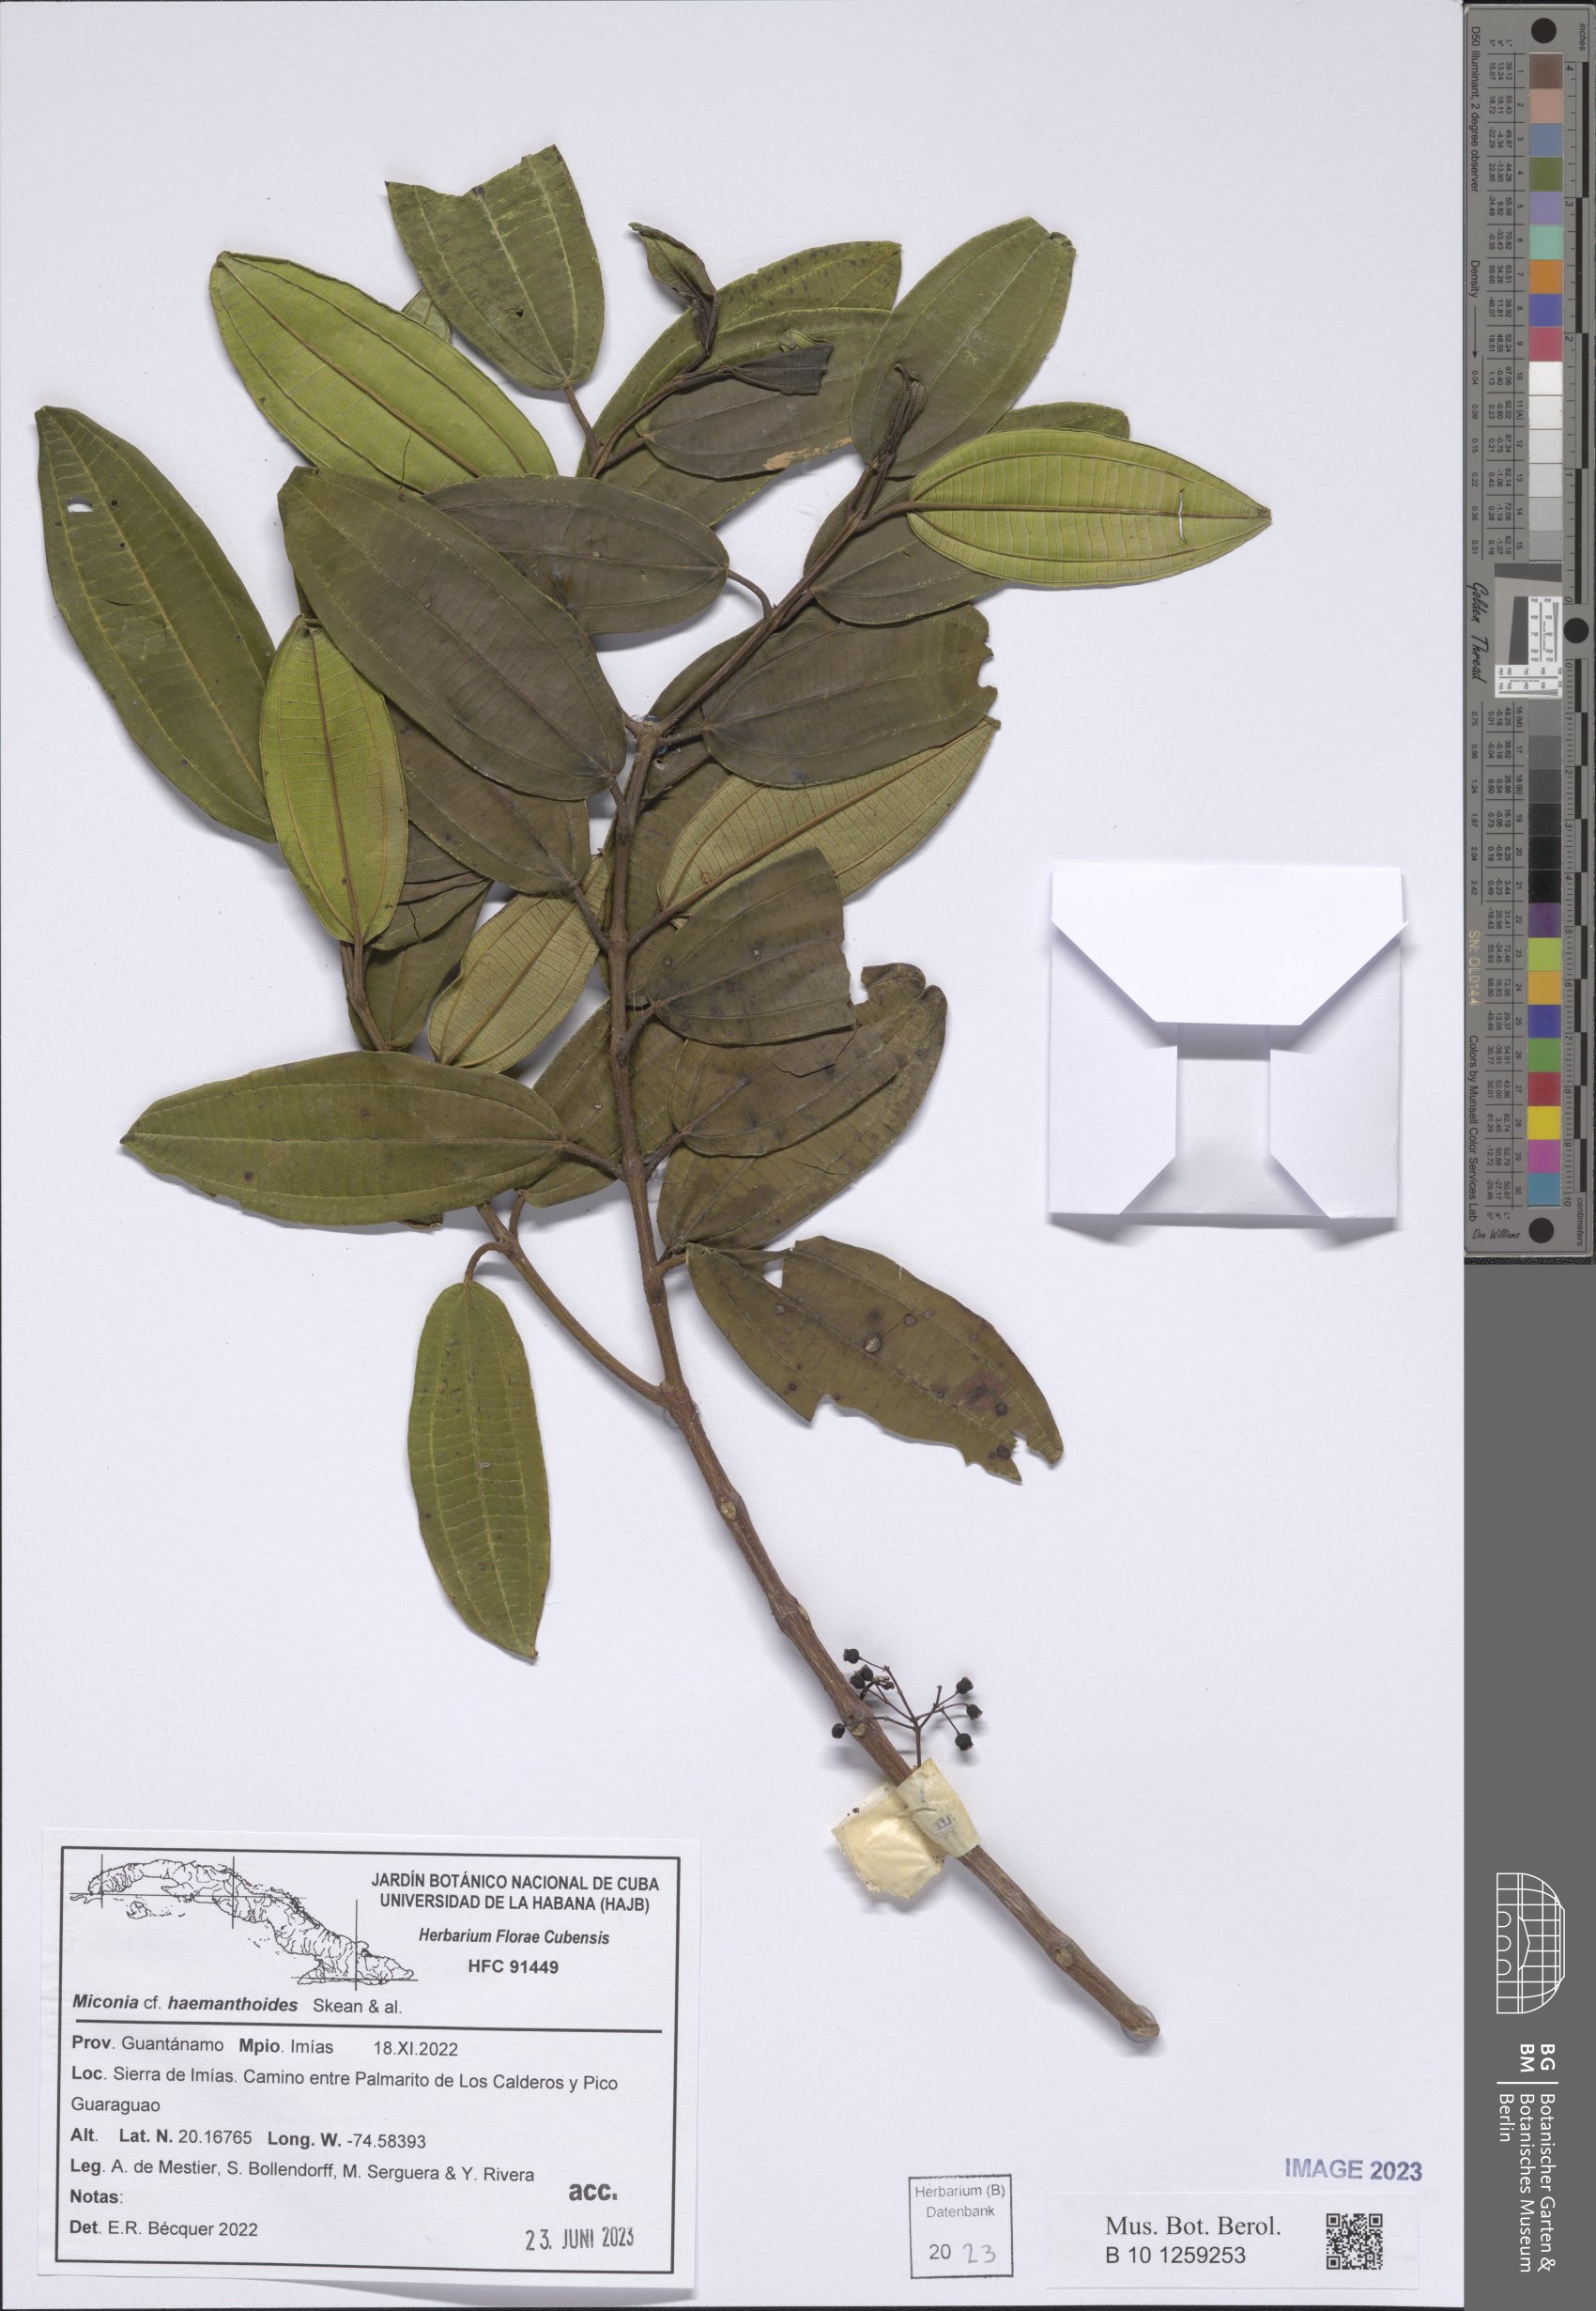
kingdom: Plantae
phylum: Tracheophyta
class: Magnoliopsida
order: Myrtales
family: Melastomataceae
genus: Miconia
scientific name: Miconia haemanthoides
